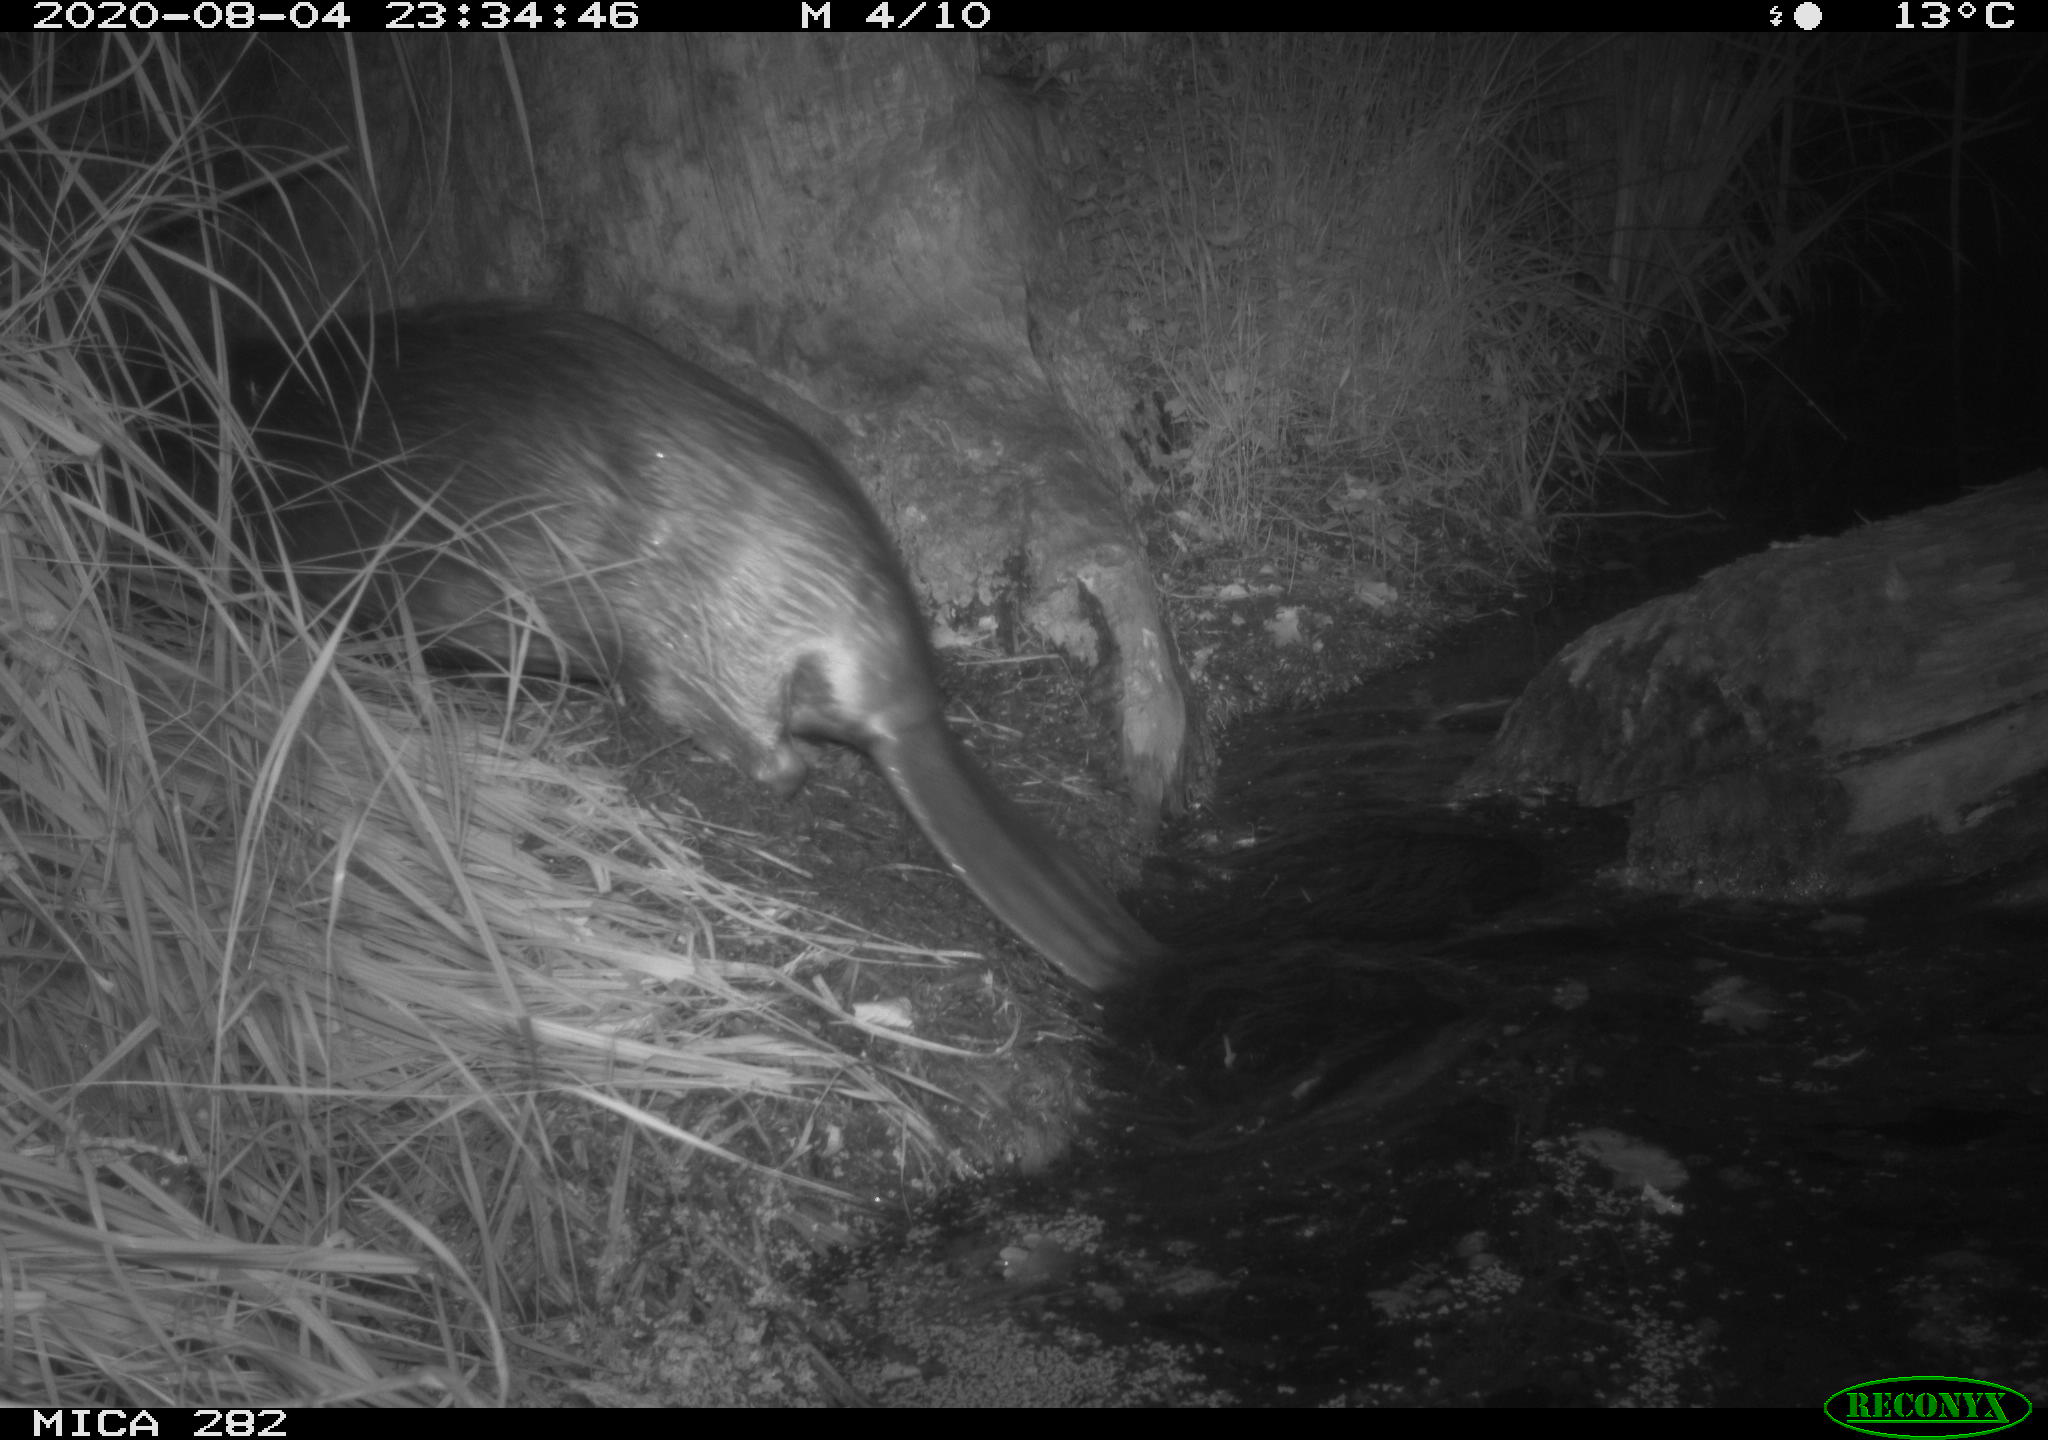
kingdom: Animalia
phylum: Chordata
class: Mammalia
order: Rodentia
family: Castoridae
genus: Castor
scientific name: Castor fiber
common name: Eurasian beaver
